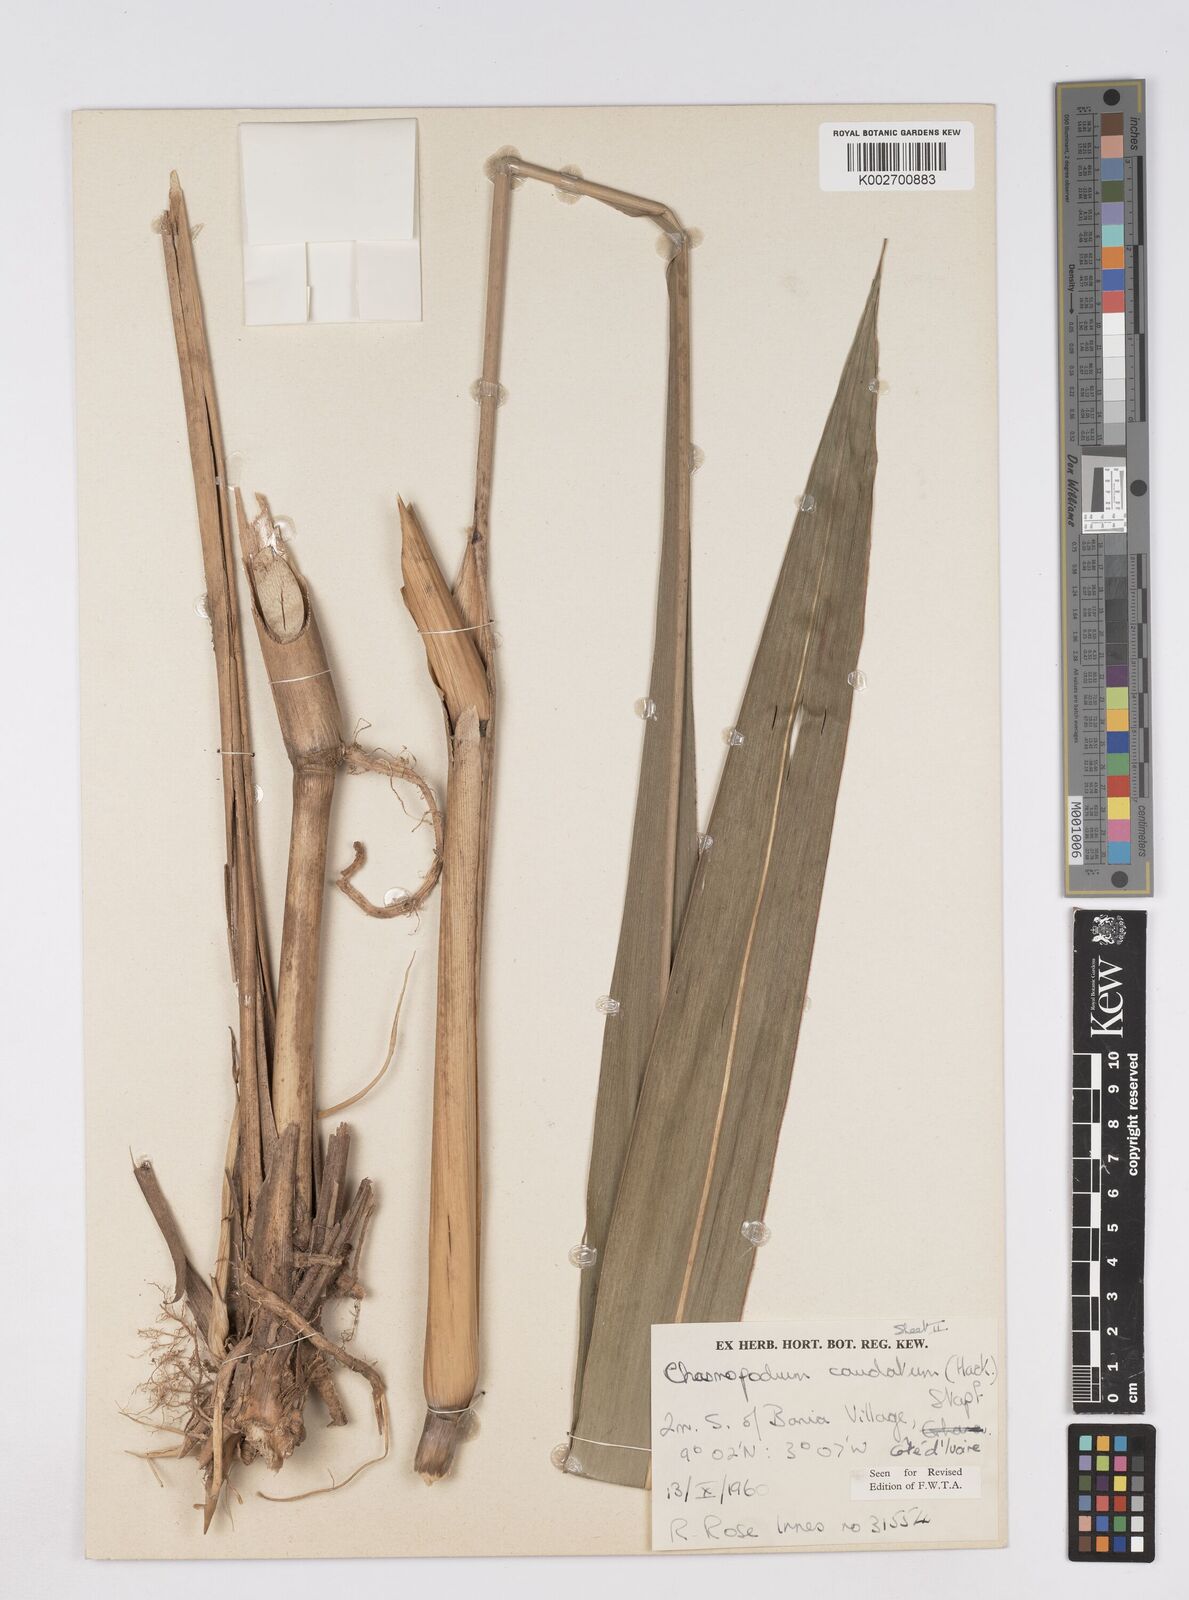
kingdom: Plantae
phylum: Tracheophyta
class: Liliopsida
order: Poales
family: Poaceae
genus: Chasmopodium
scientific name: Chasmopodium caudatum
